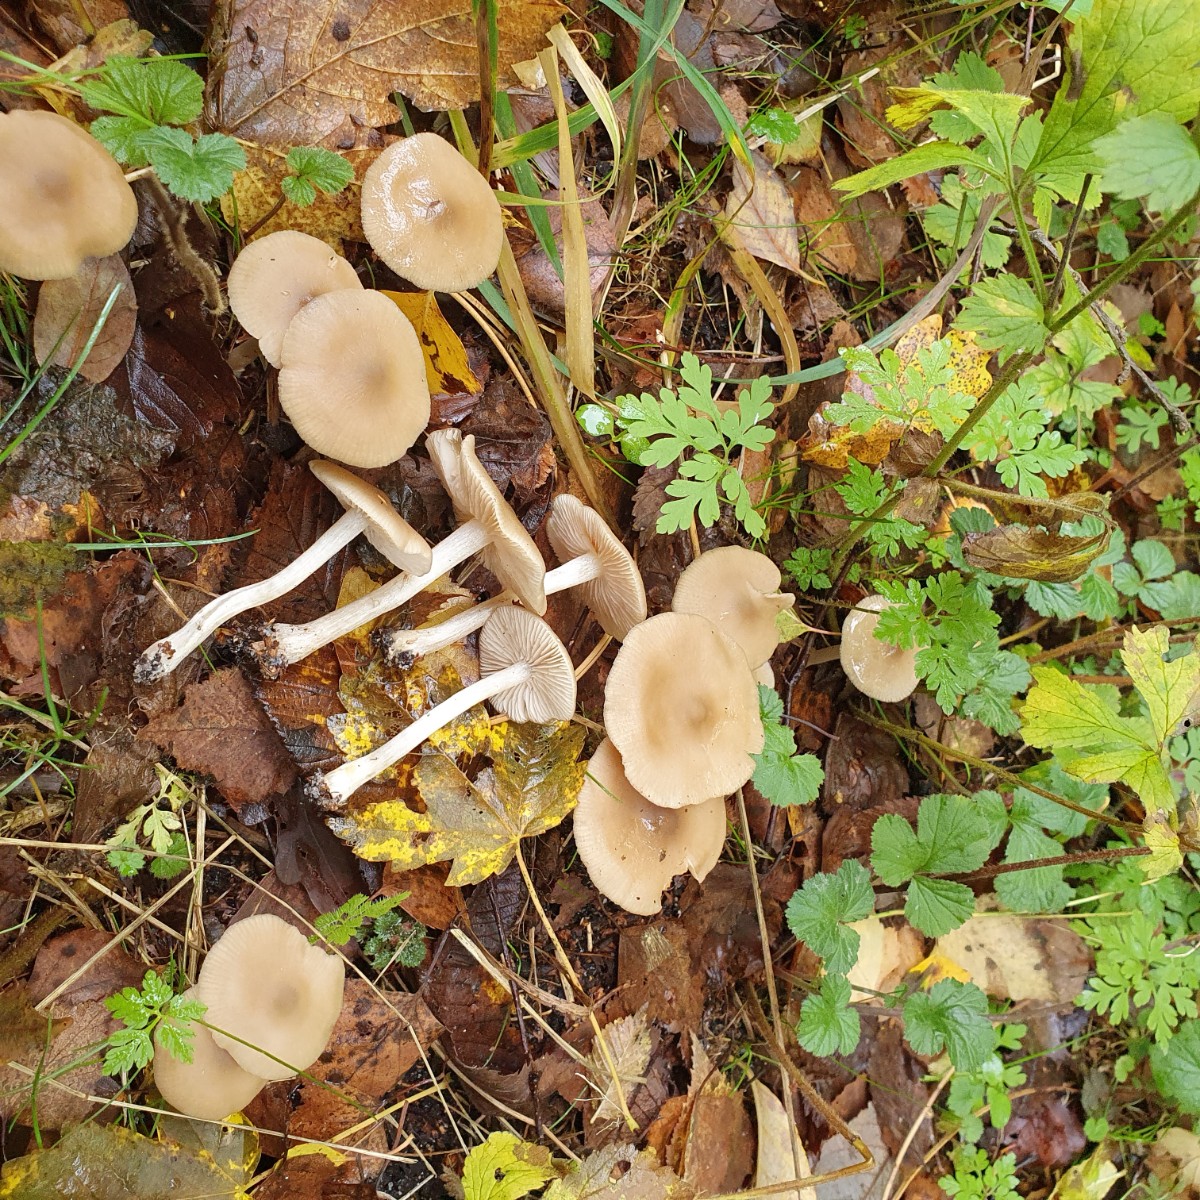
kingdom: Fungi
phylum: Basidiomycota
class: Agaricomycetes
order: Agaricales
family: Entolomataceae
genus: Entoloma
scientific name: Entoloma rhodopolium
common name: skov-rødblad
